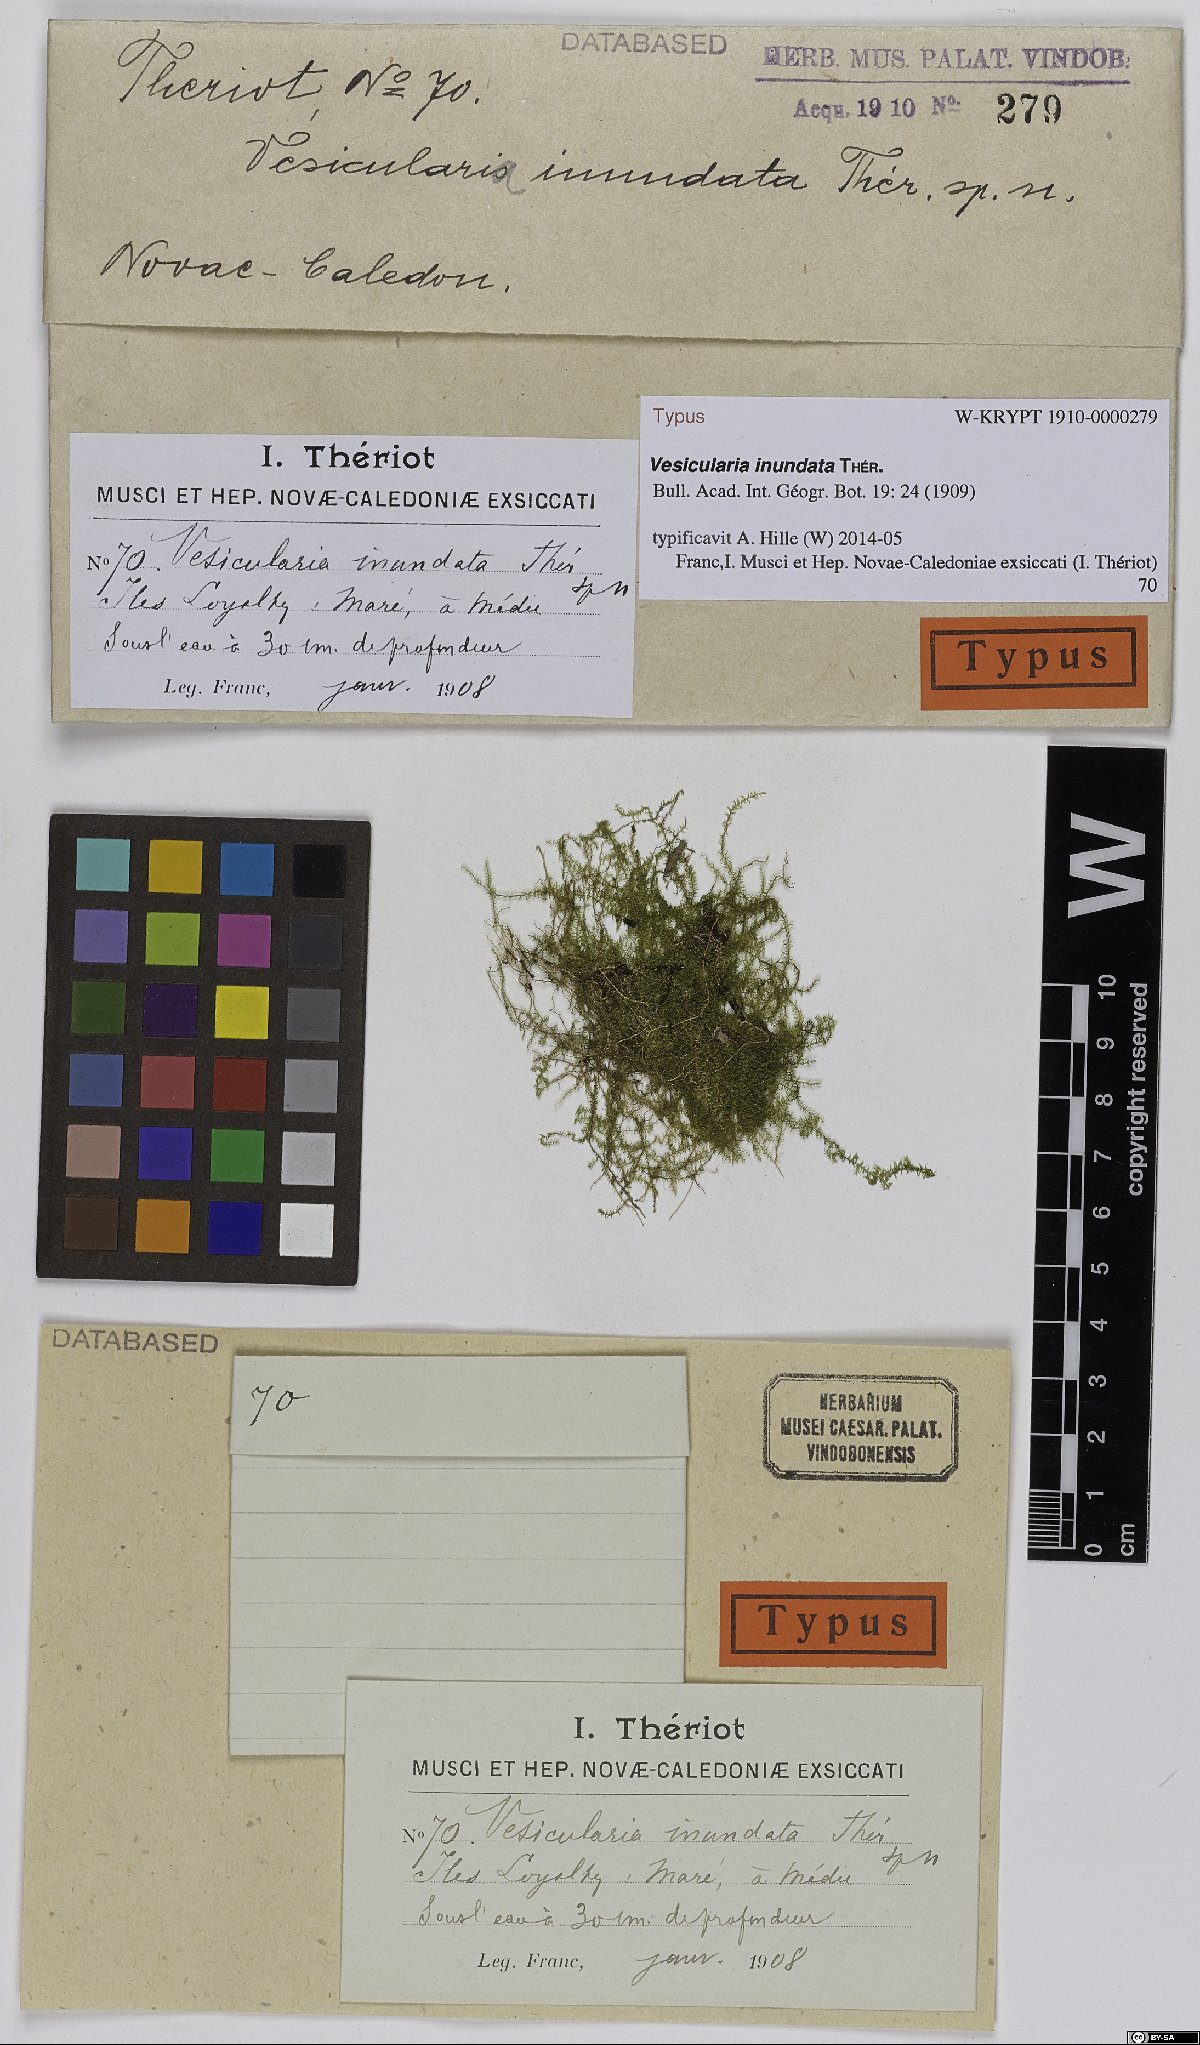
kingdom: Plantae
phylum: Bryophyta
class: Bryopsida
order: Hypnales
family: Hypnaceae
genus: Vesicularia
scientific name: Vesicularia inundata
